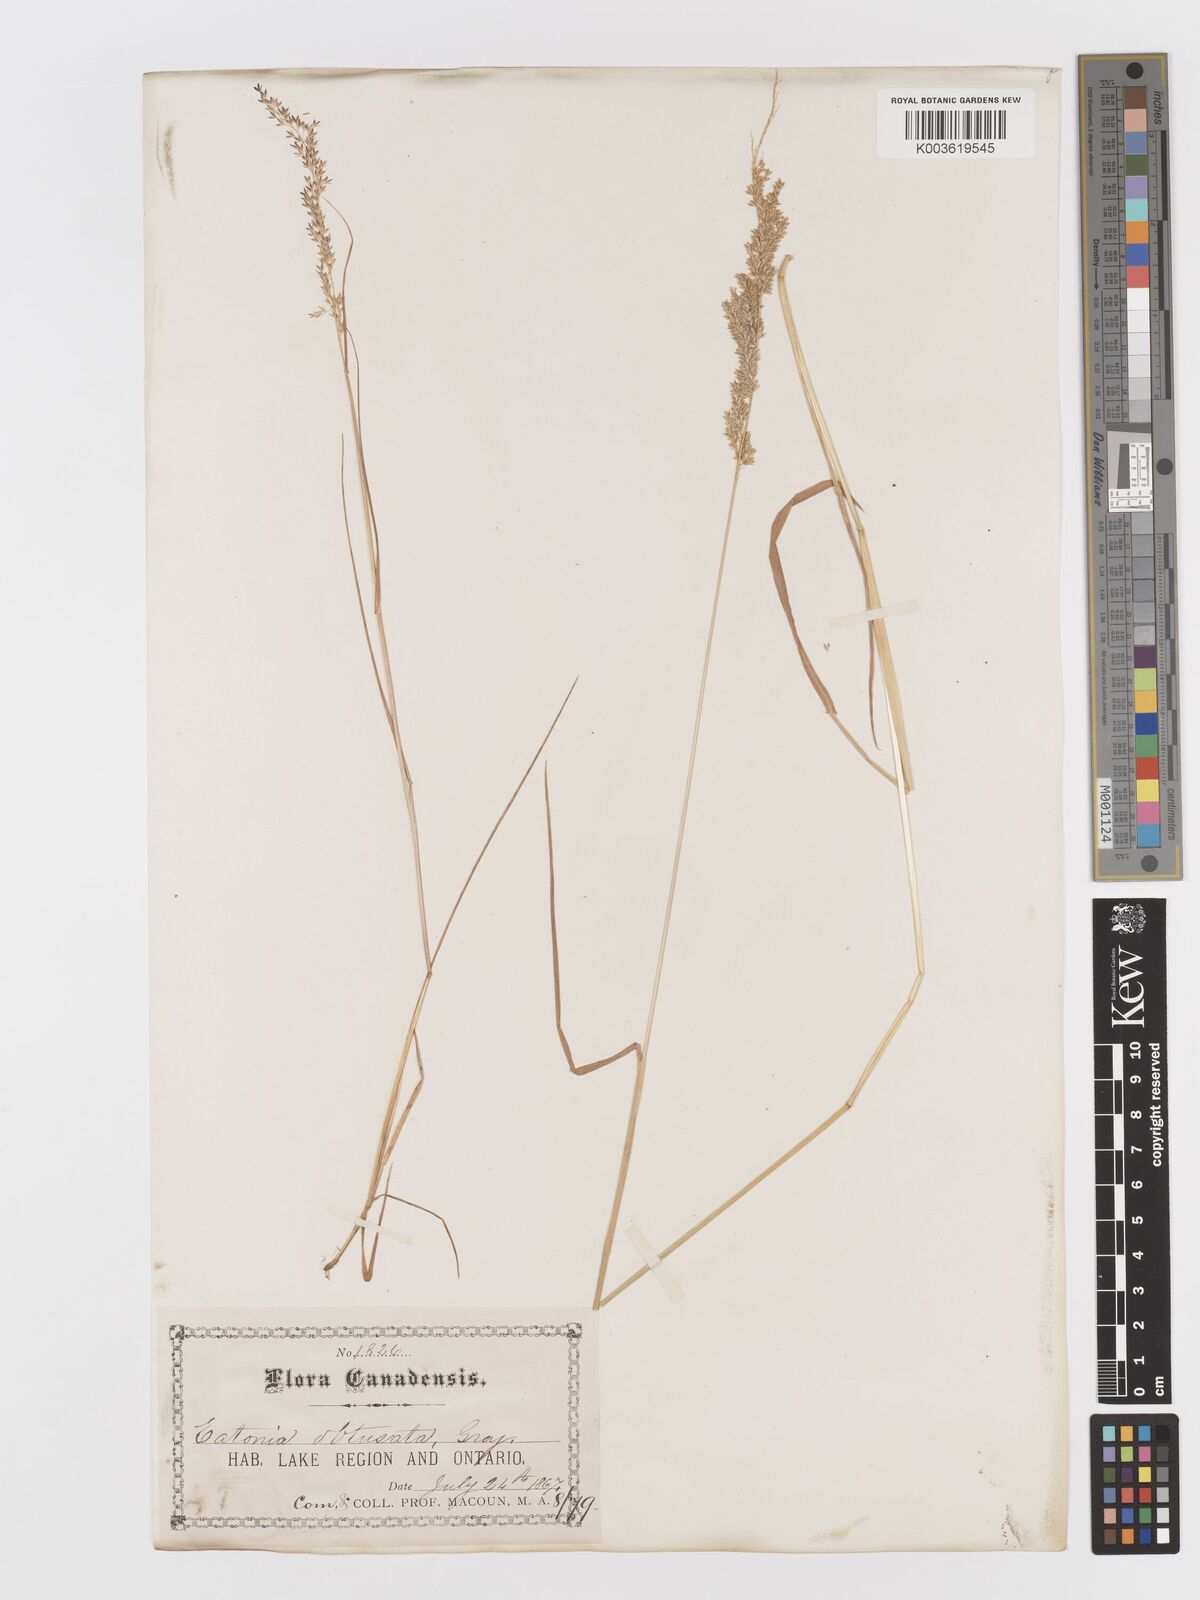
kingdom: Plantae
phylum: Tracheophyta
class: Liliopsida
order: Poales
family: Poaceae
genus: Sphenopholis
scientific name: Sphenopholis obtusata
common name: Prairie grass
